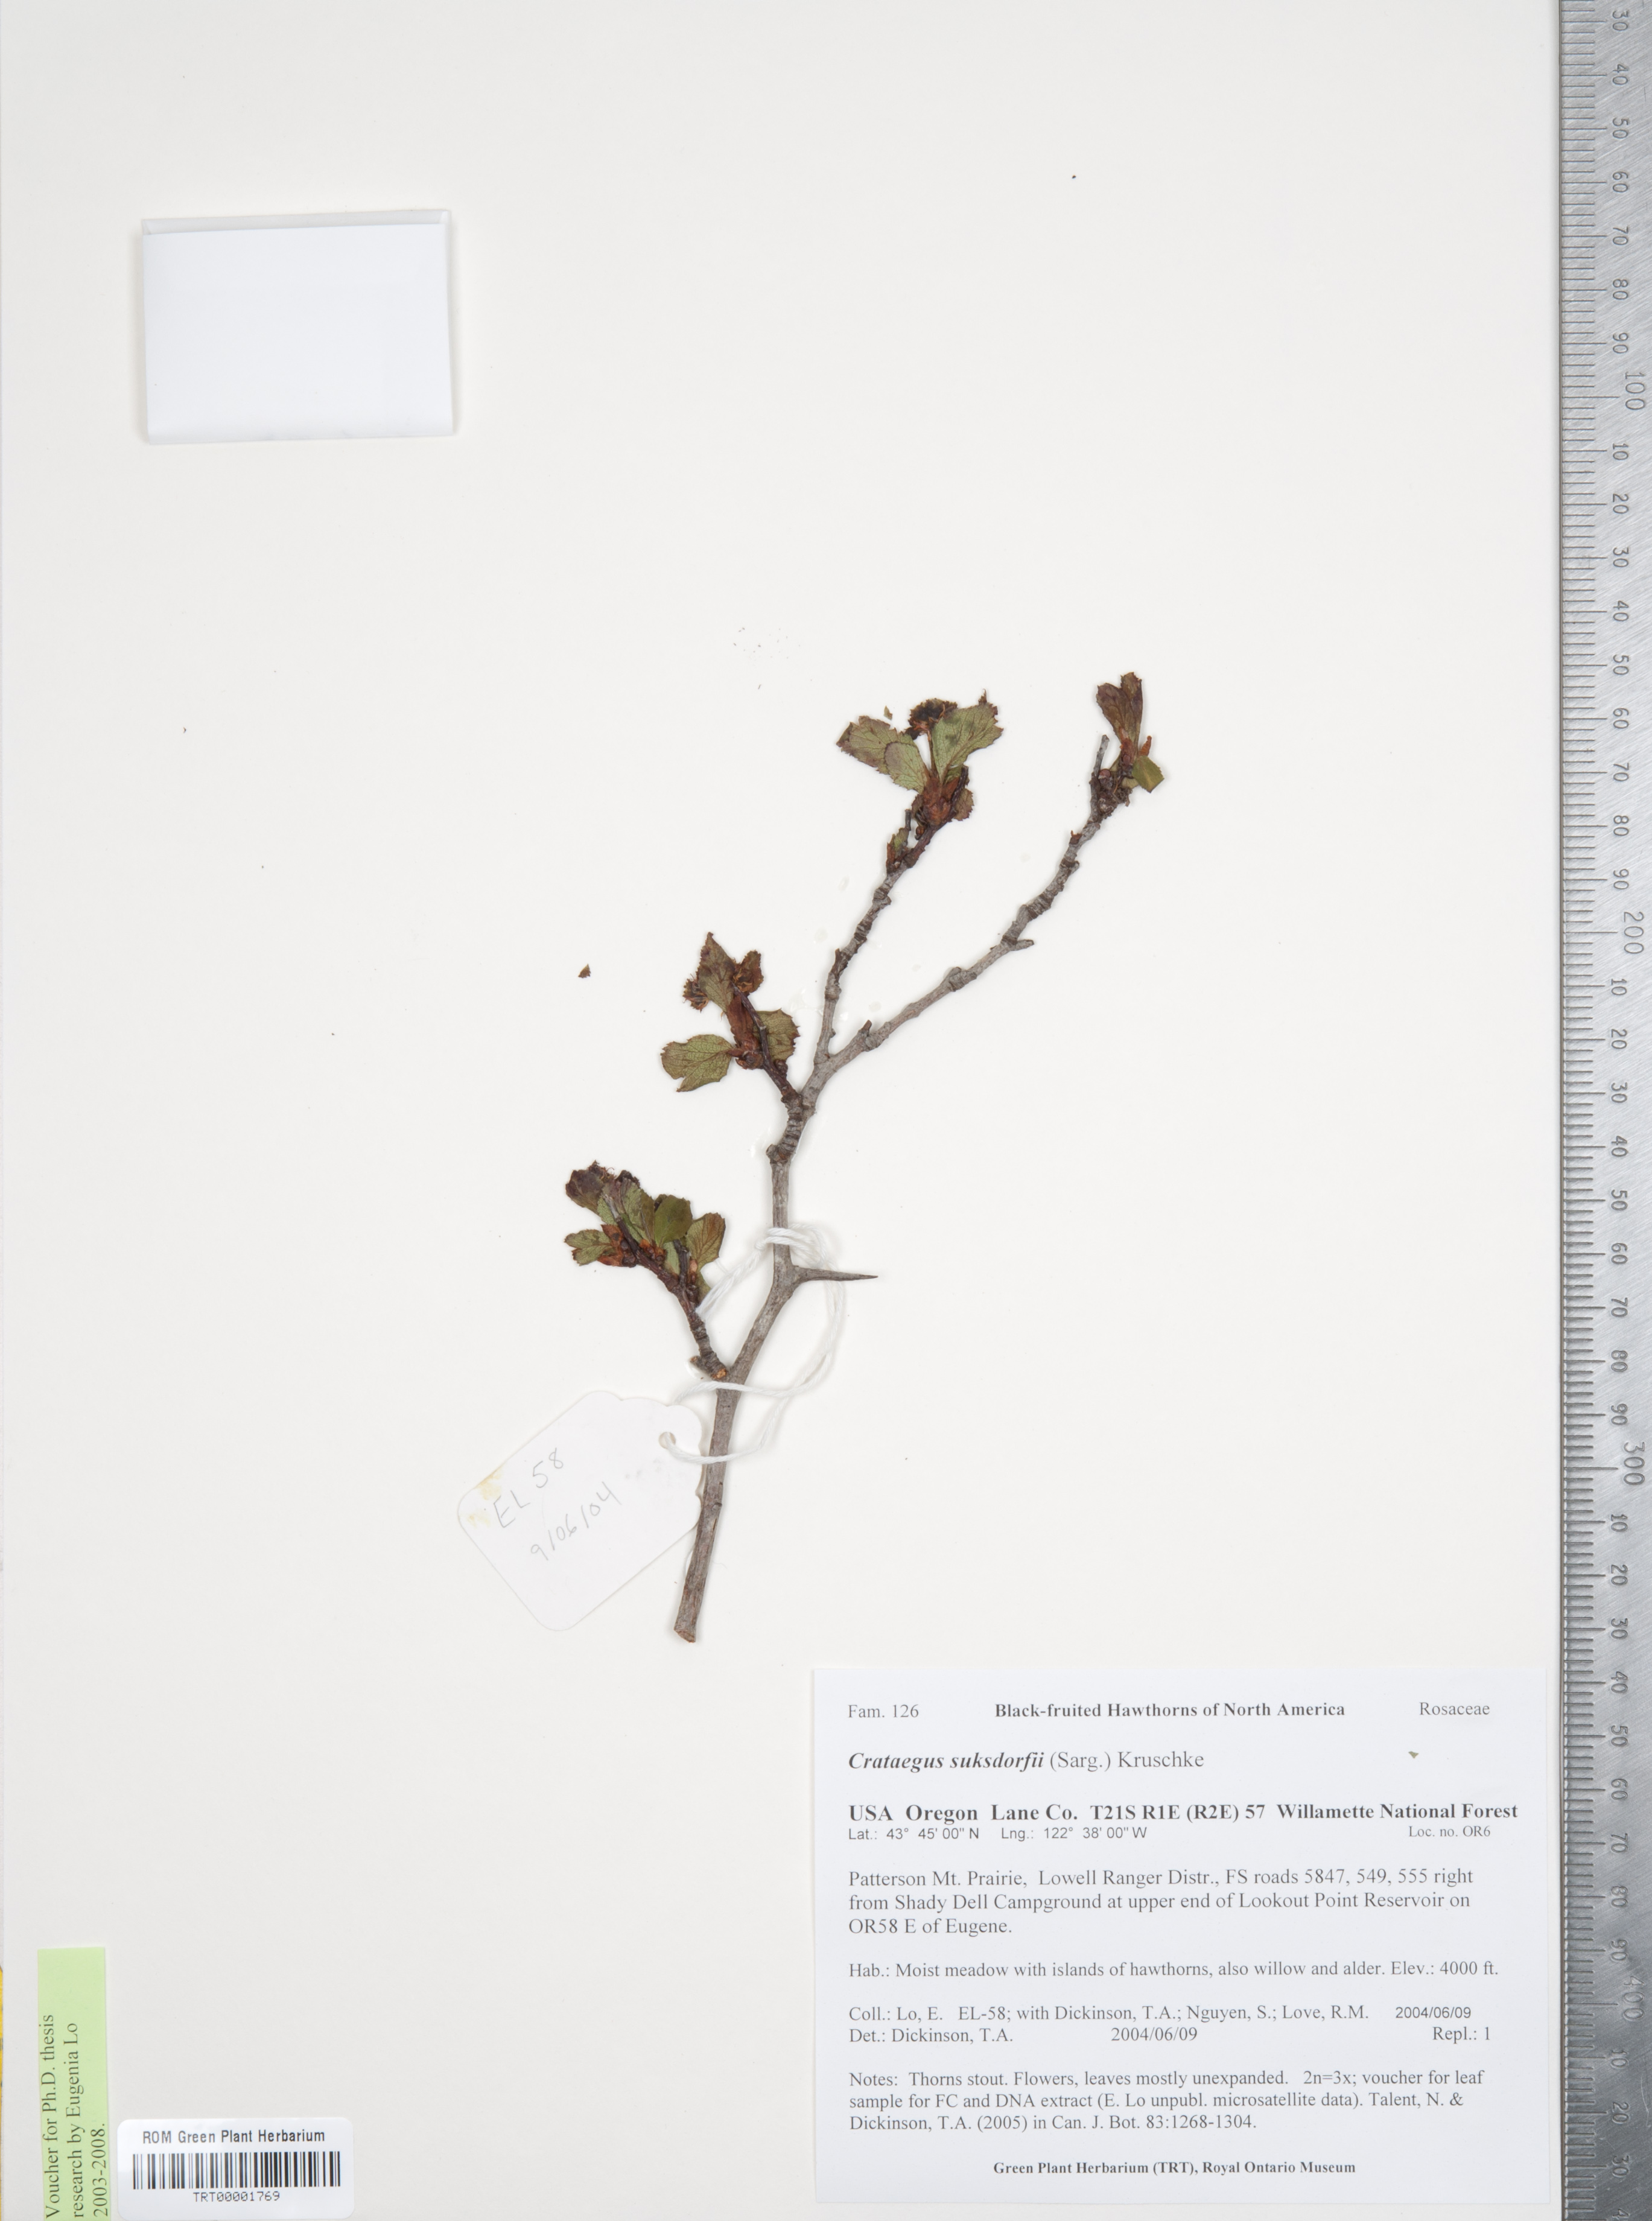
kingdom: Plantae
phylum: Tracheophyta
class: Magnoliopsida
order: Rosales
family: Rosaceae
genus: Crataegus
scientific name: Crataegus gaylussacia
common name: Huckleberry hawthorn
